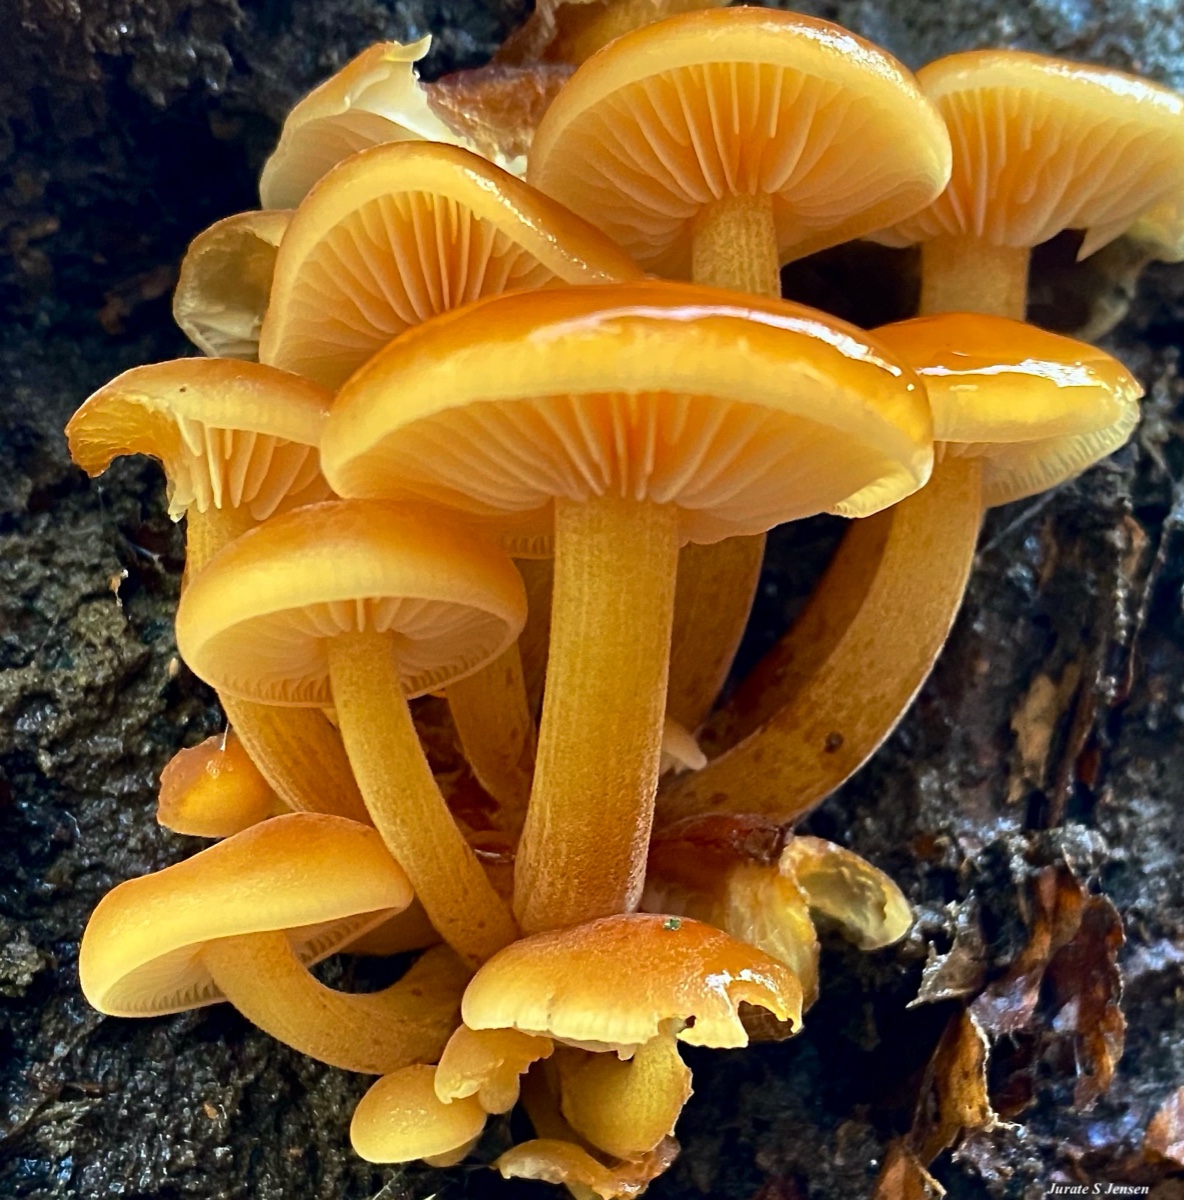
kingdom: Fungi
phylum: Basidiomycota
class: Agaricomycetes
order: Agaricales
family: Physalacriaceae
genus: Flammulina
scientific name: Flammulina velutipes
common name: gul fløjlsfod
